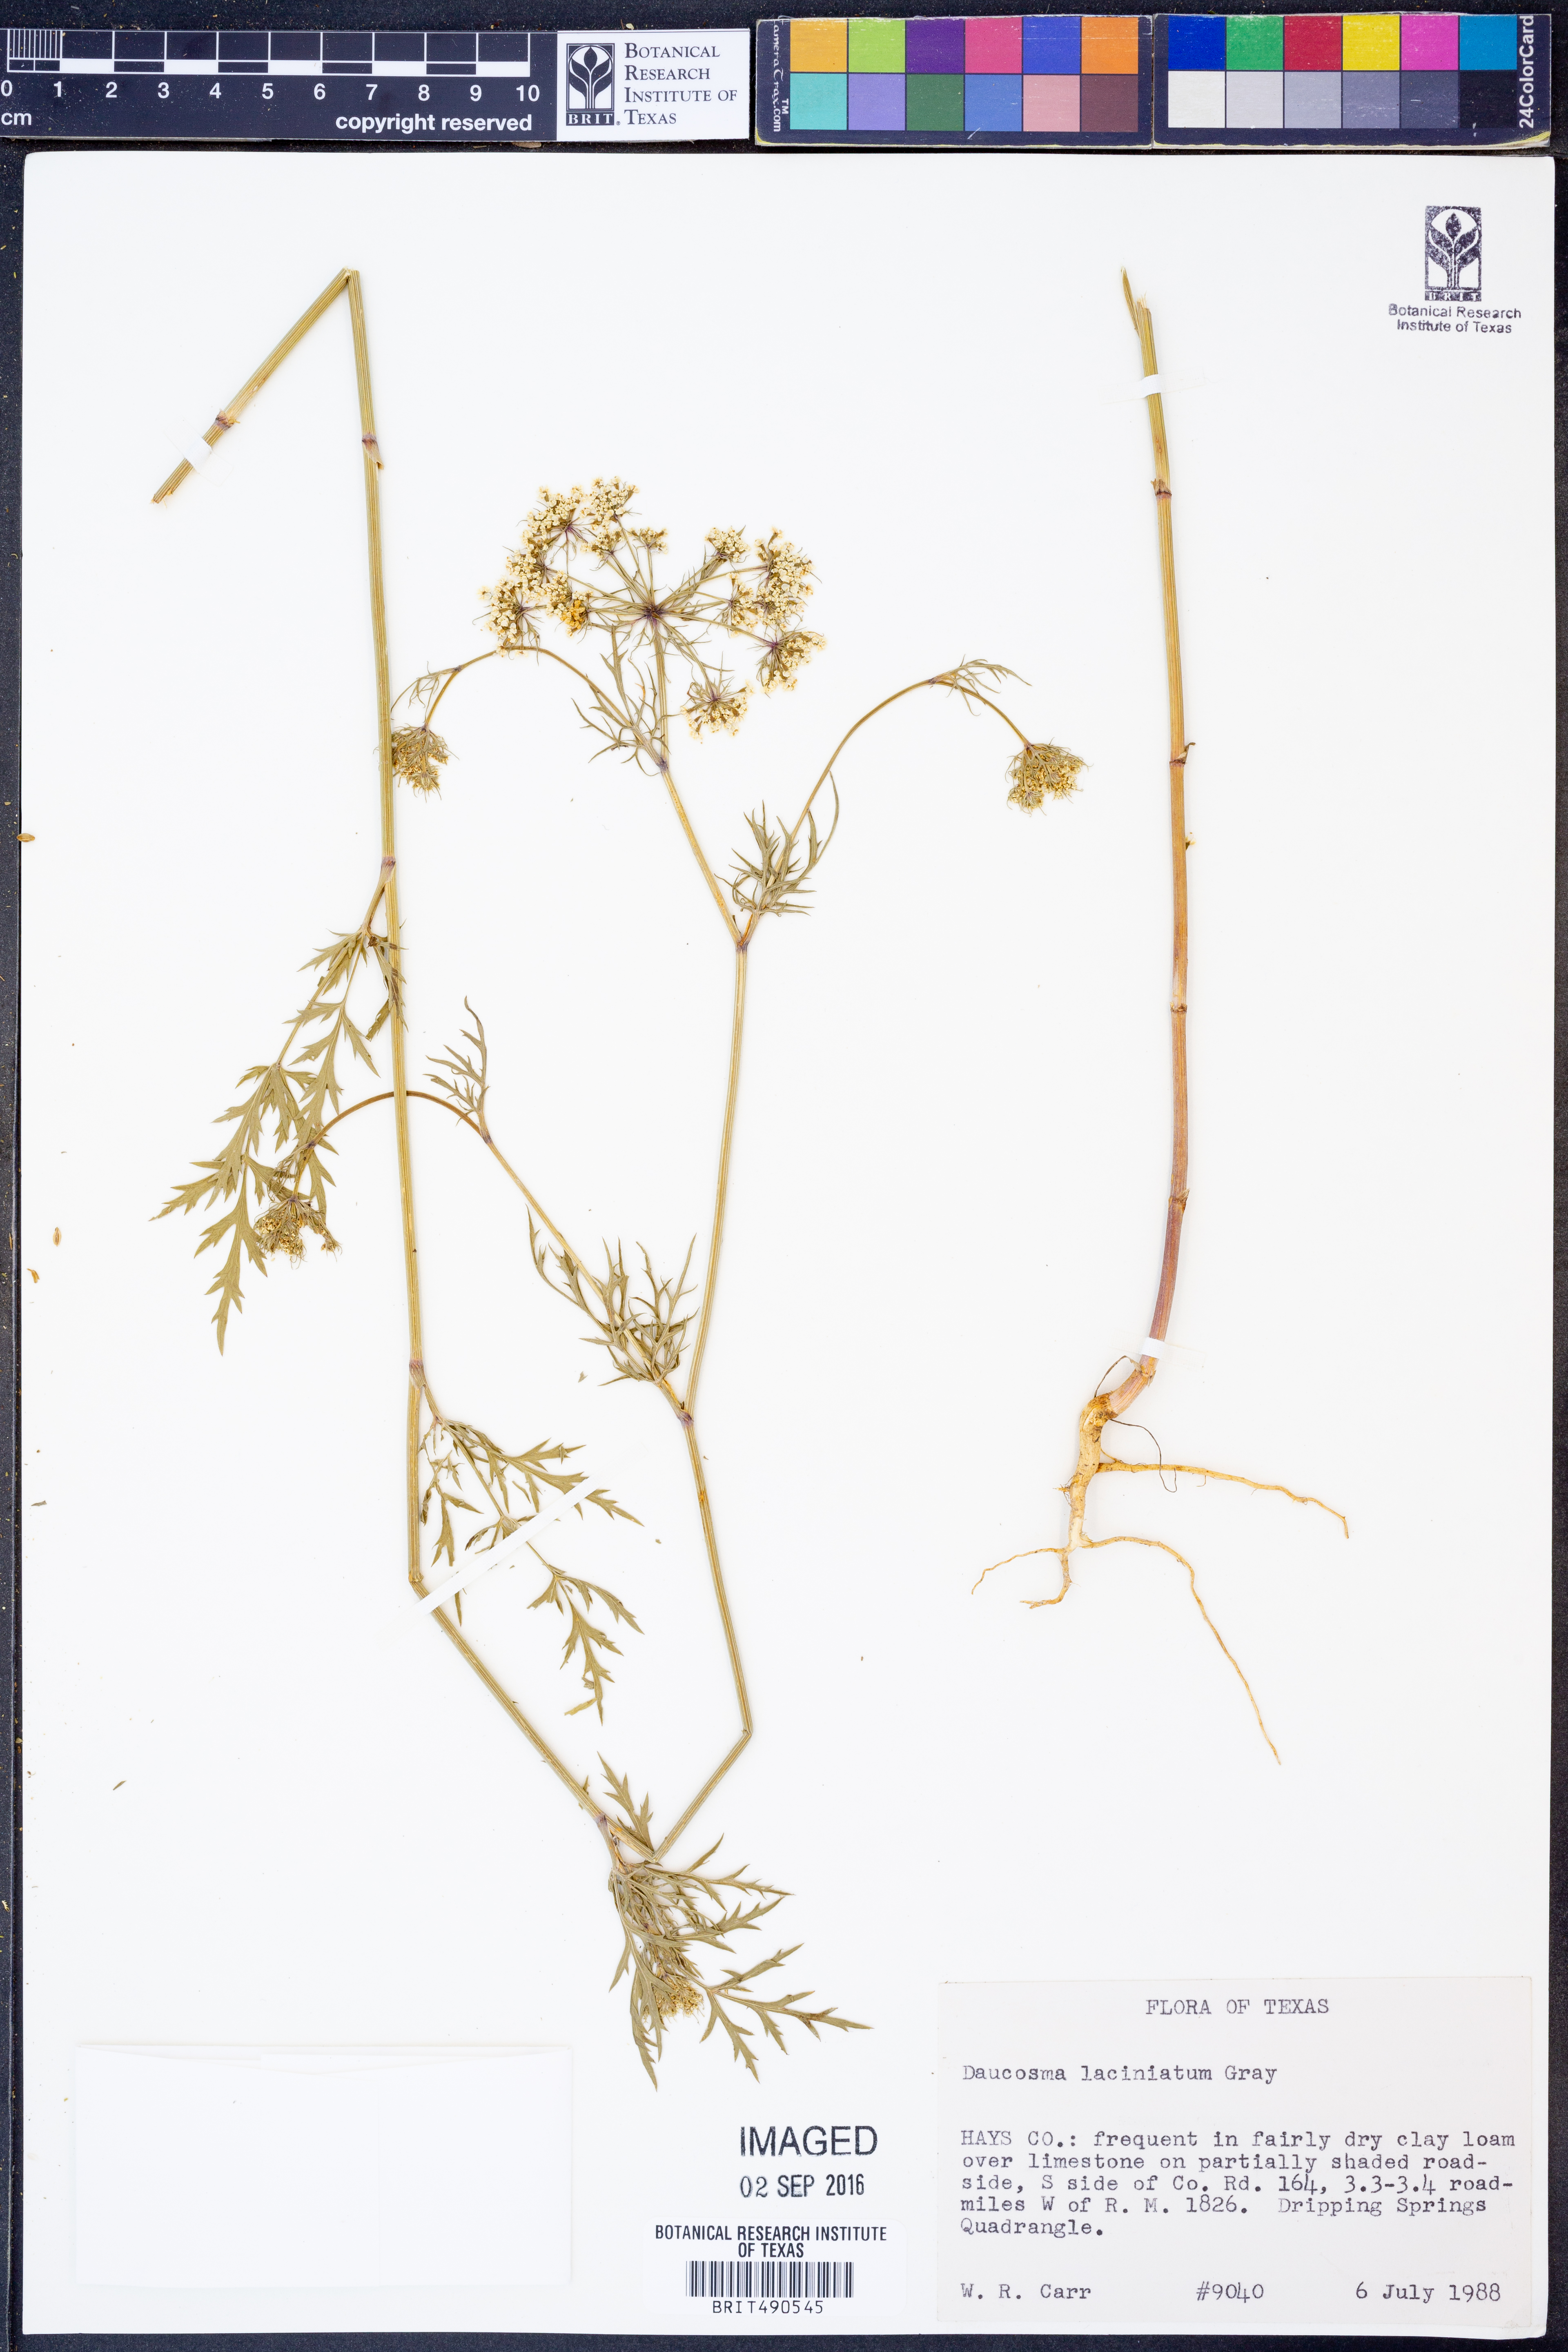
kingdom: Plantae
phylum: Tracheophyta
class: Magnoliopsida
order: Apiales
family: Apiaceae
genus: Daucosma
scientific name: Daucosma laciniatum
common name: Meadow-parasol
